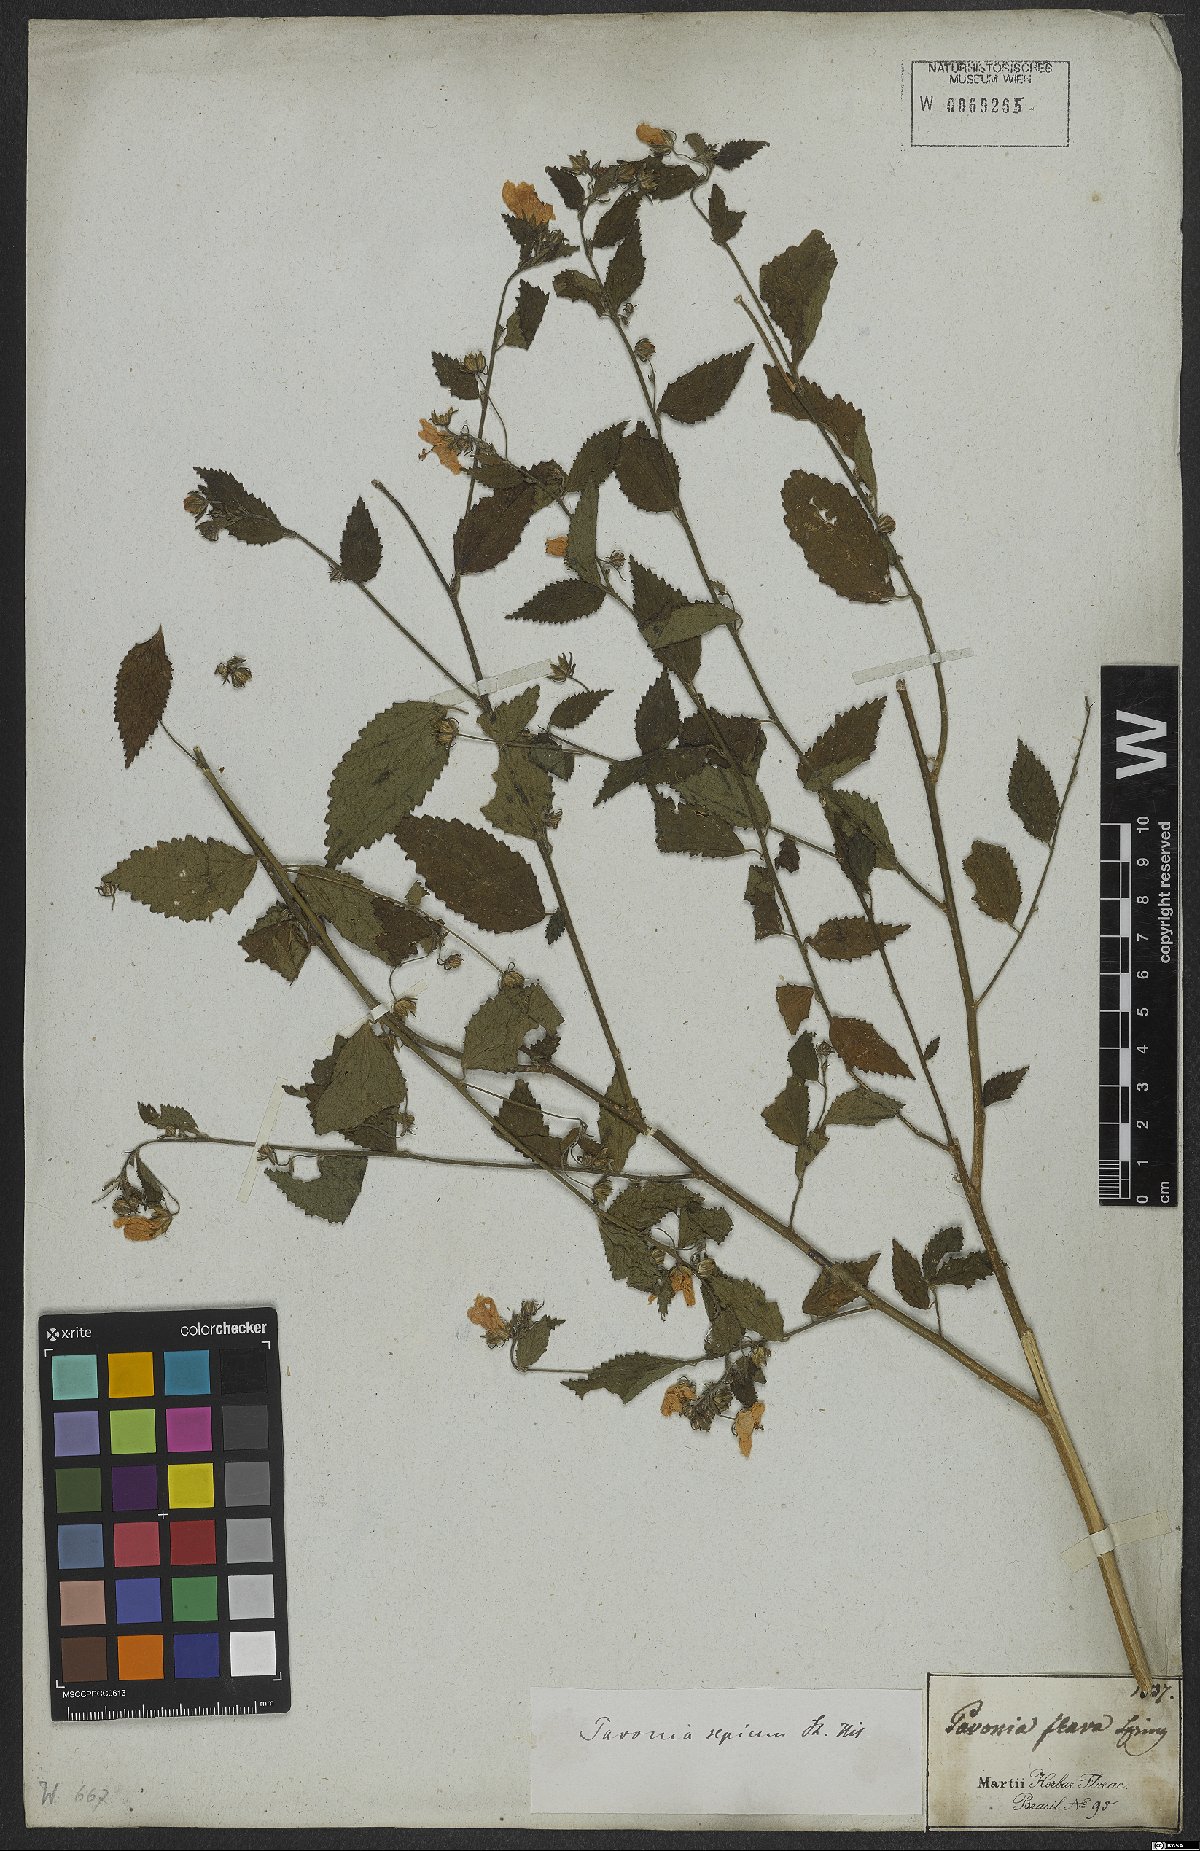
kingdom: Plantae
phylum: Tracheophyta
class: Magnoliopsida
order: Malvales
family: Malvaceae
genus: Pavonia
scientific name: Pavonia sepium
